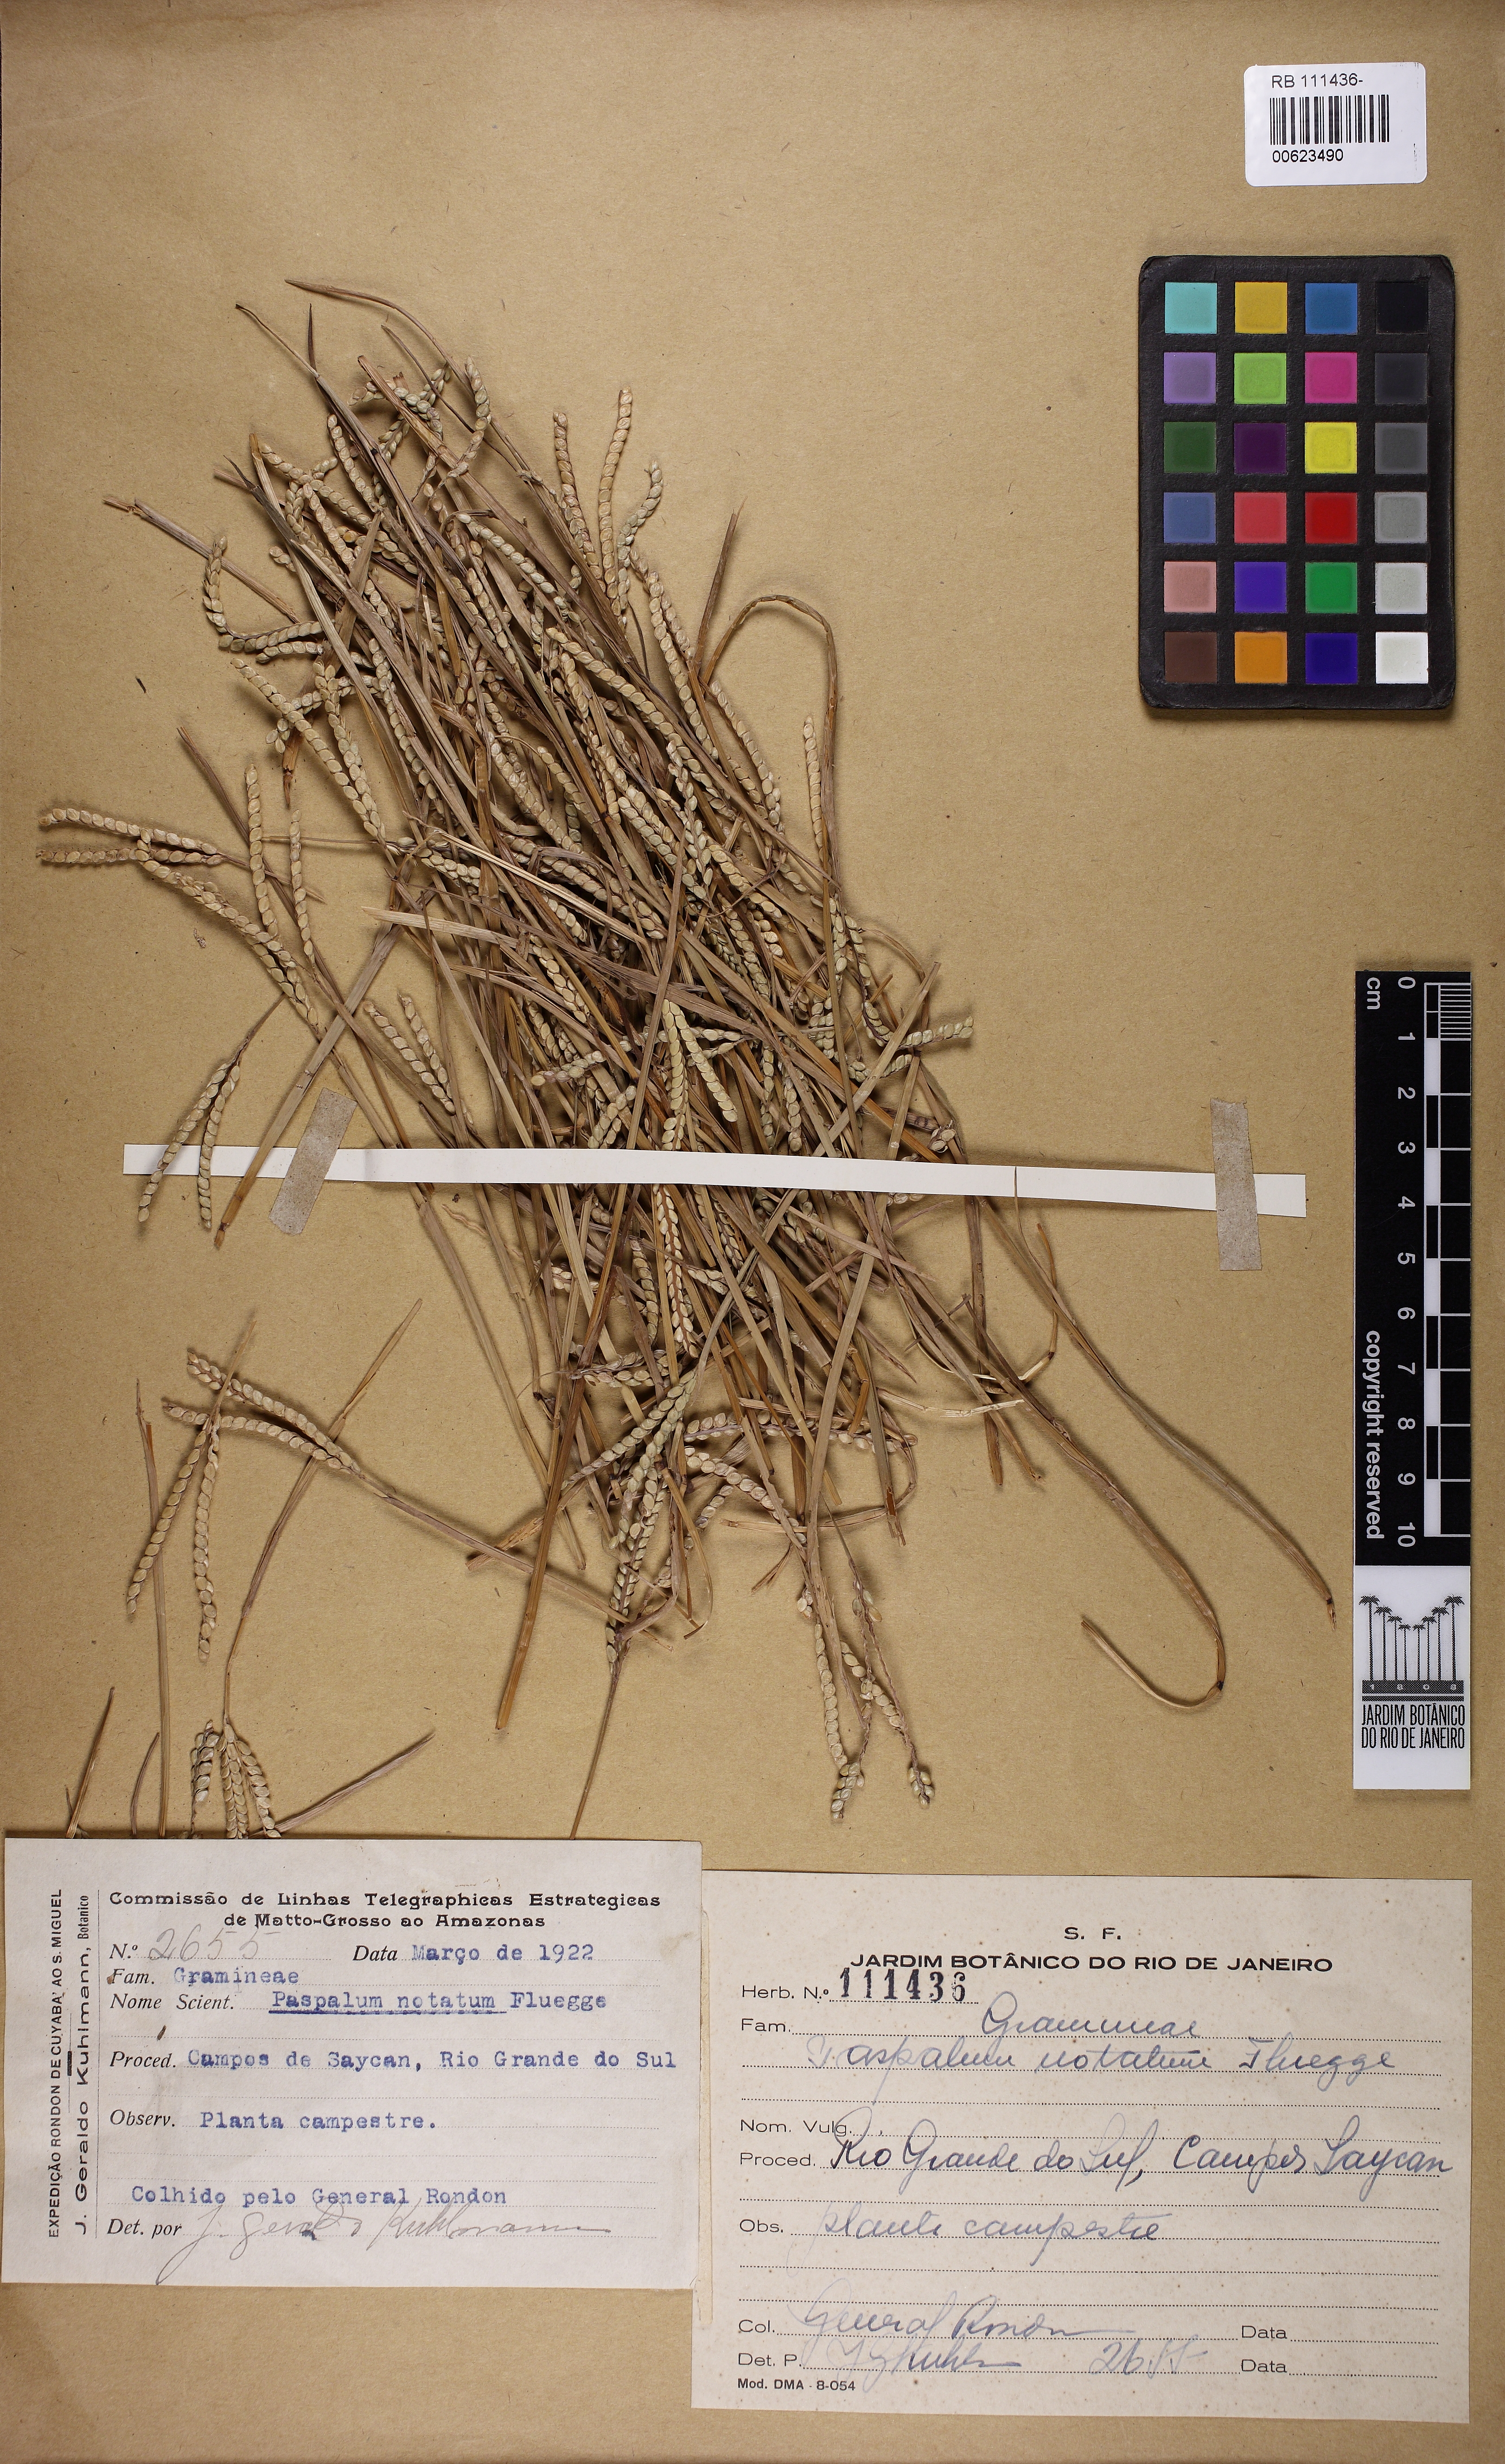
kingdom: Plantae
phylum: Tracheophyta
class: Liliopsida
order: Poales
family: Poaceae
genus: Paspalum
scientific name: Paspalum notatum
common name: Bahiagrass
